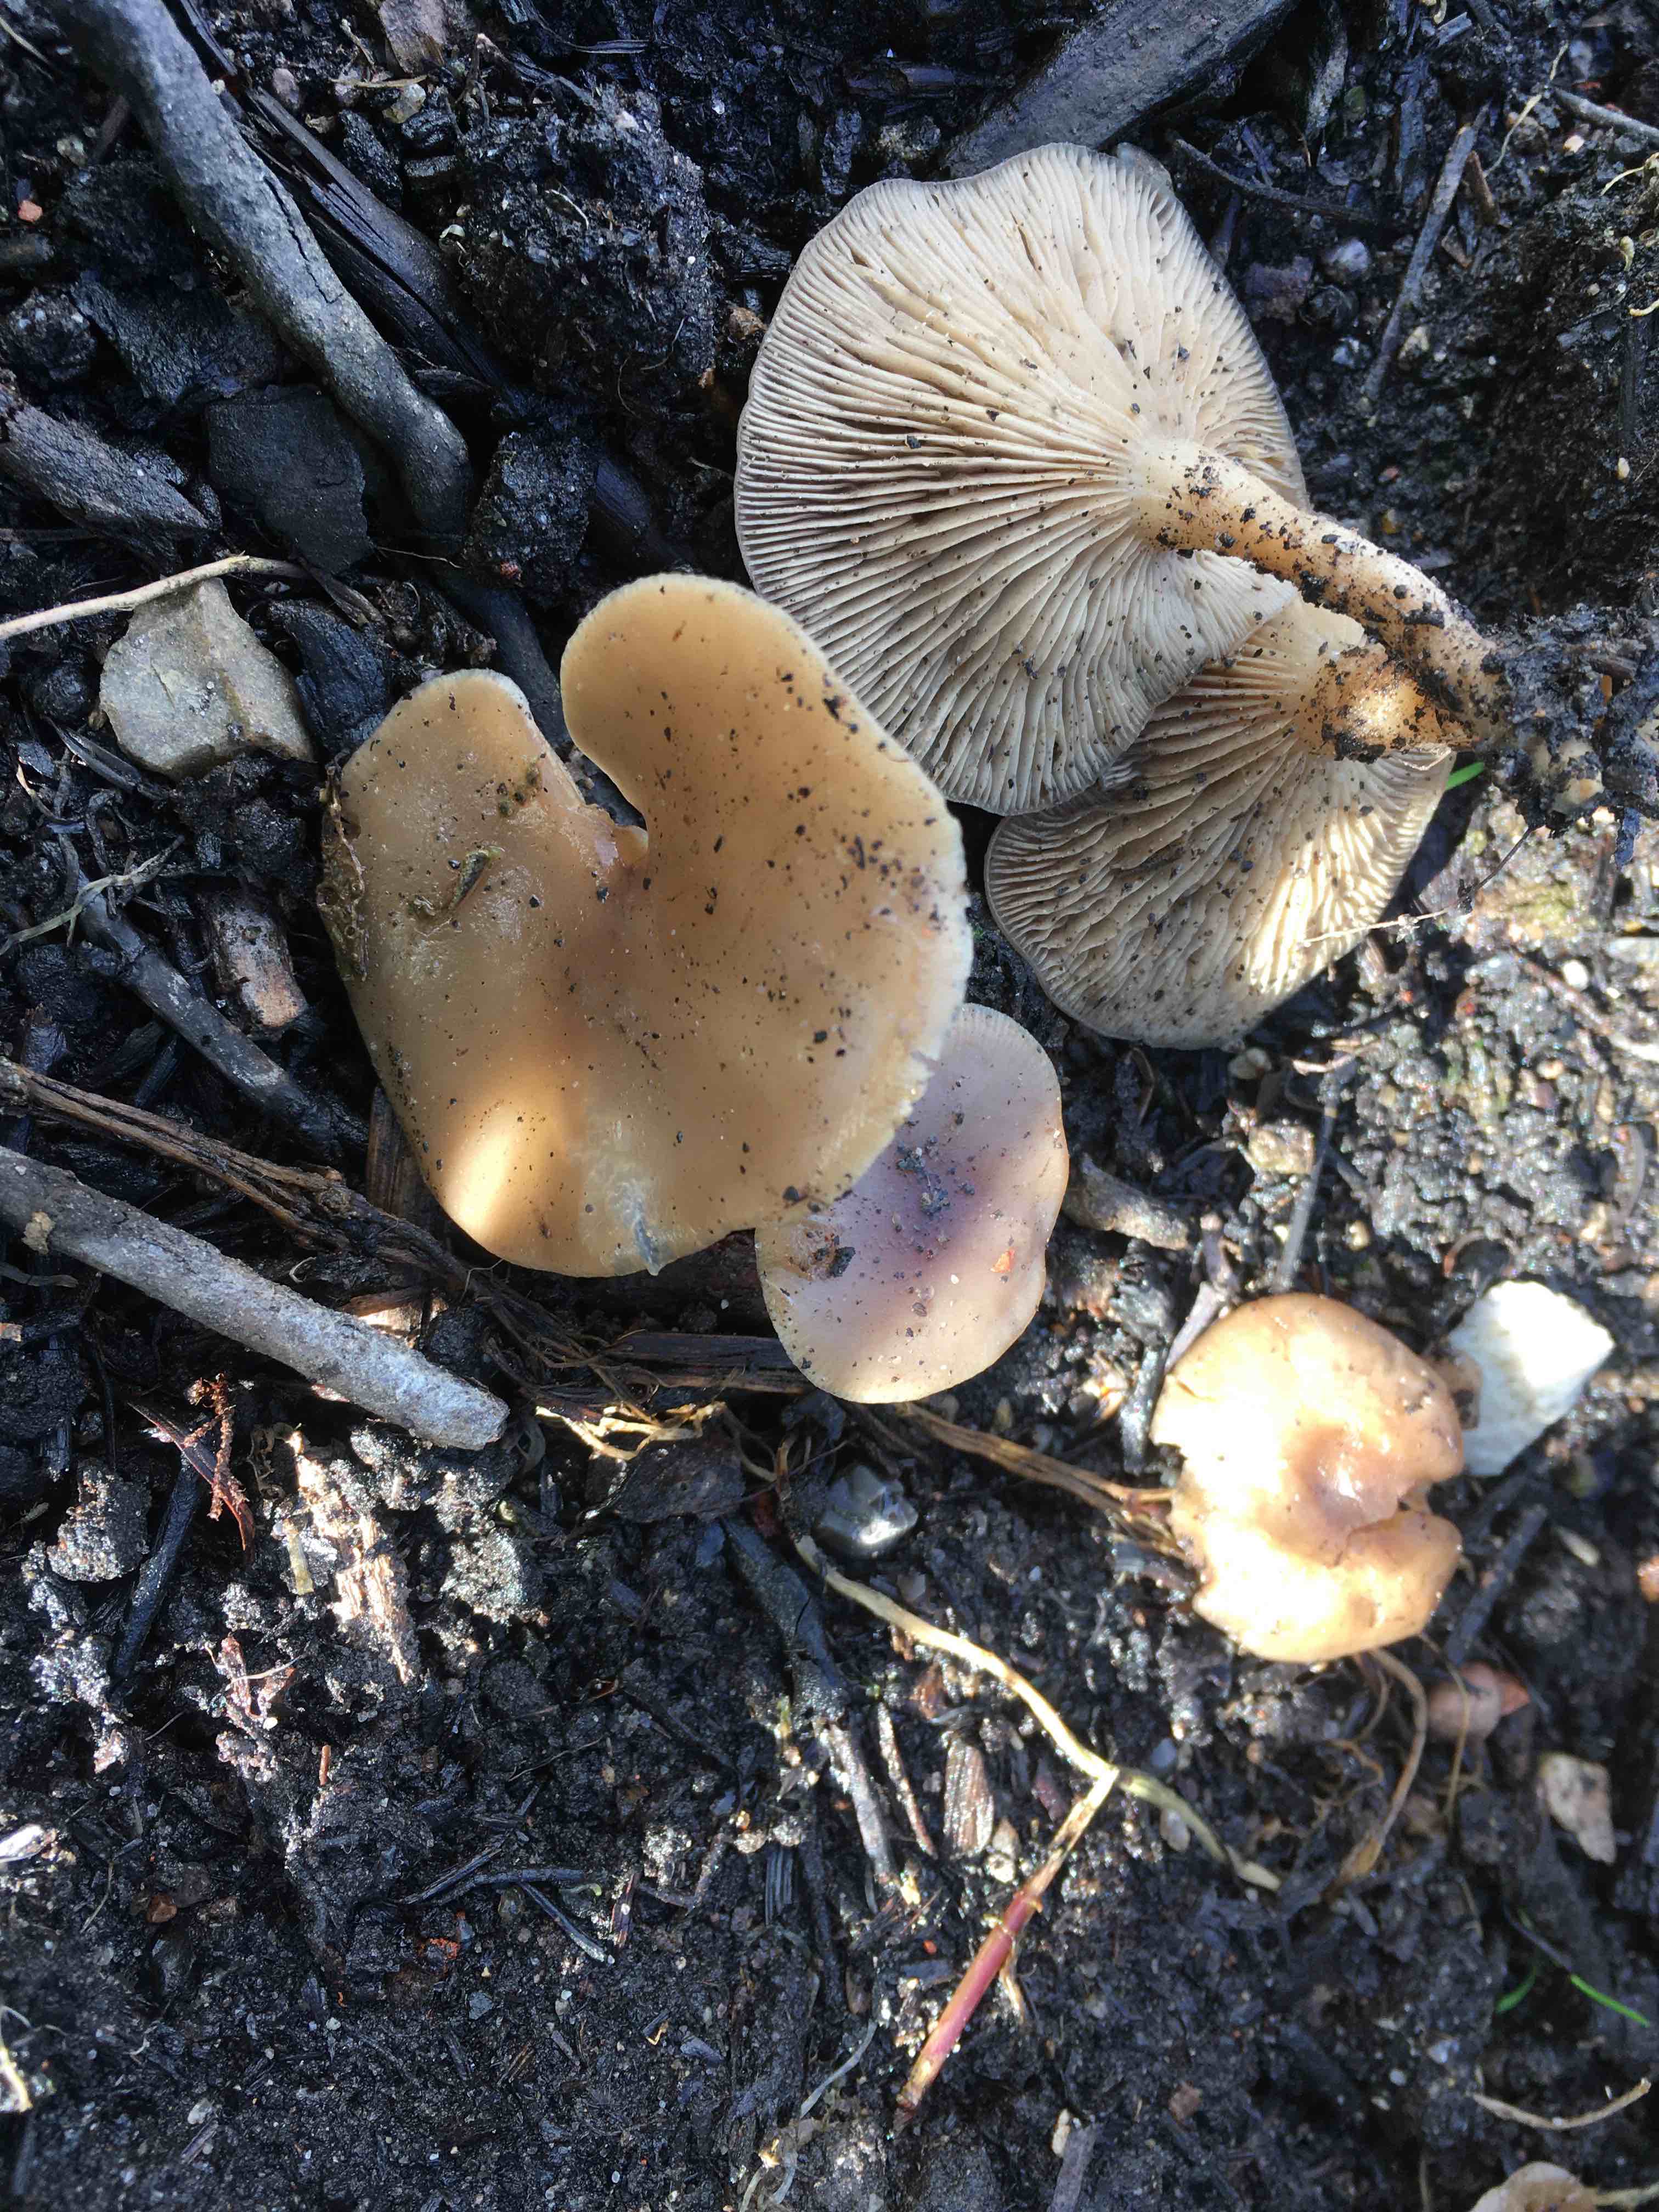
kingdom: Fungi
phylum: Basidiomycota
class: Agaricomycetes
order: Agaricales
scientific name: Agaricales
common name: champignonordenen
